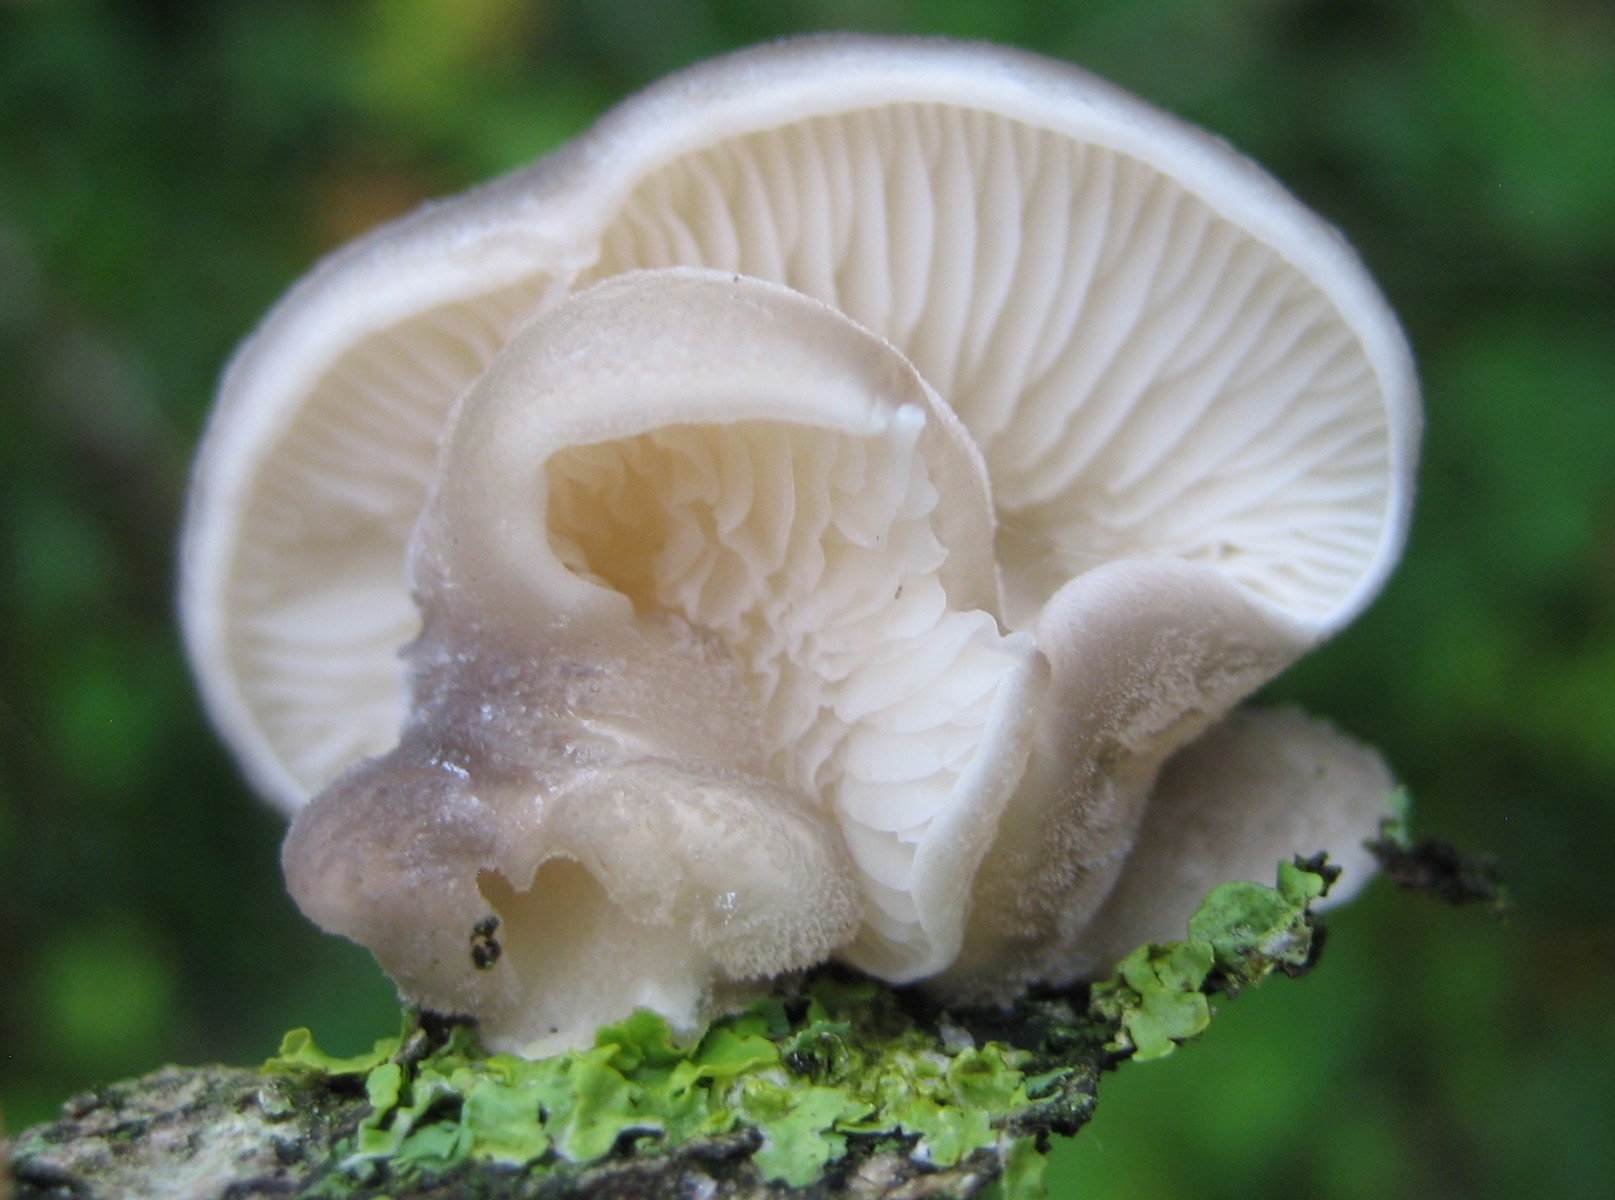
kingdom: Fungi
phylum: Basidiomycota
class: Agaricomycetes
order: Agaricales
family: Pleurotaceae
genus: Hohenbuehelia
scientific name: Hohenbuehelia atrocoerulea
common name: blålig filthat
